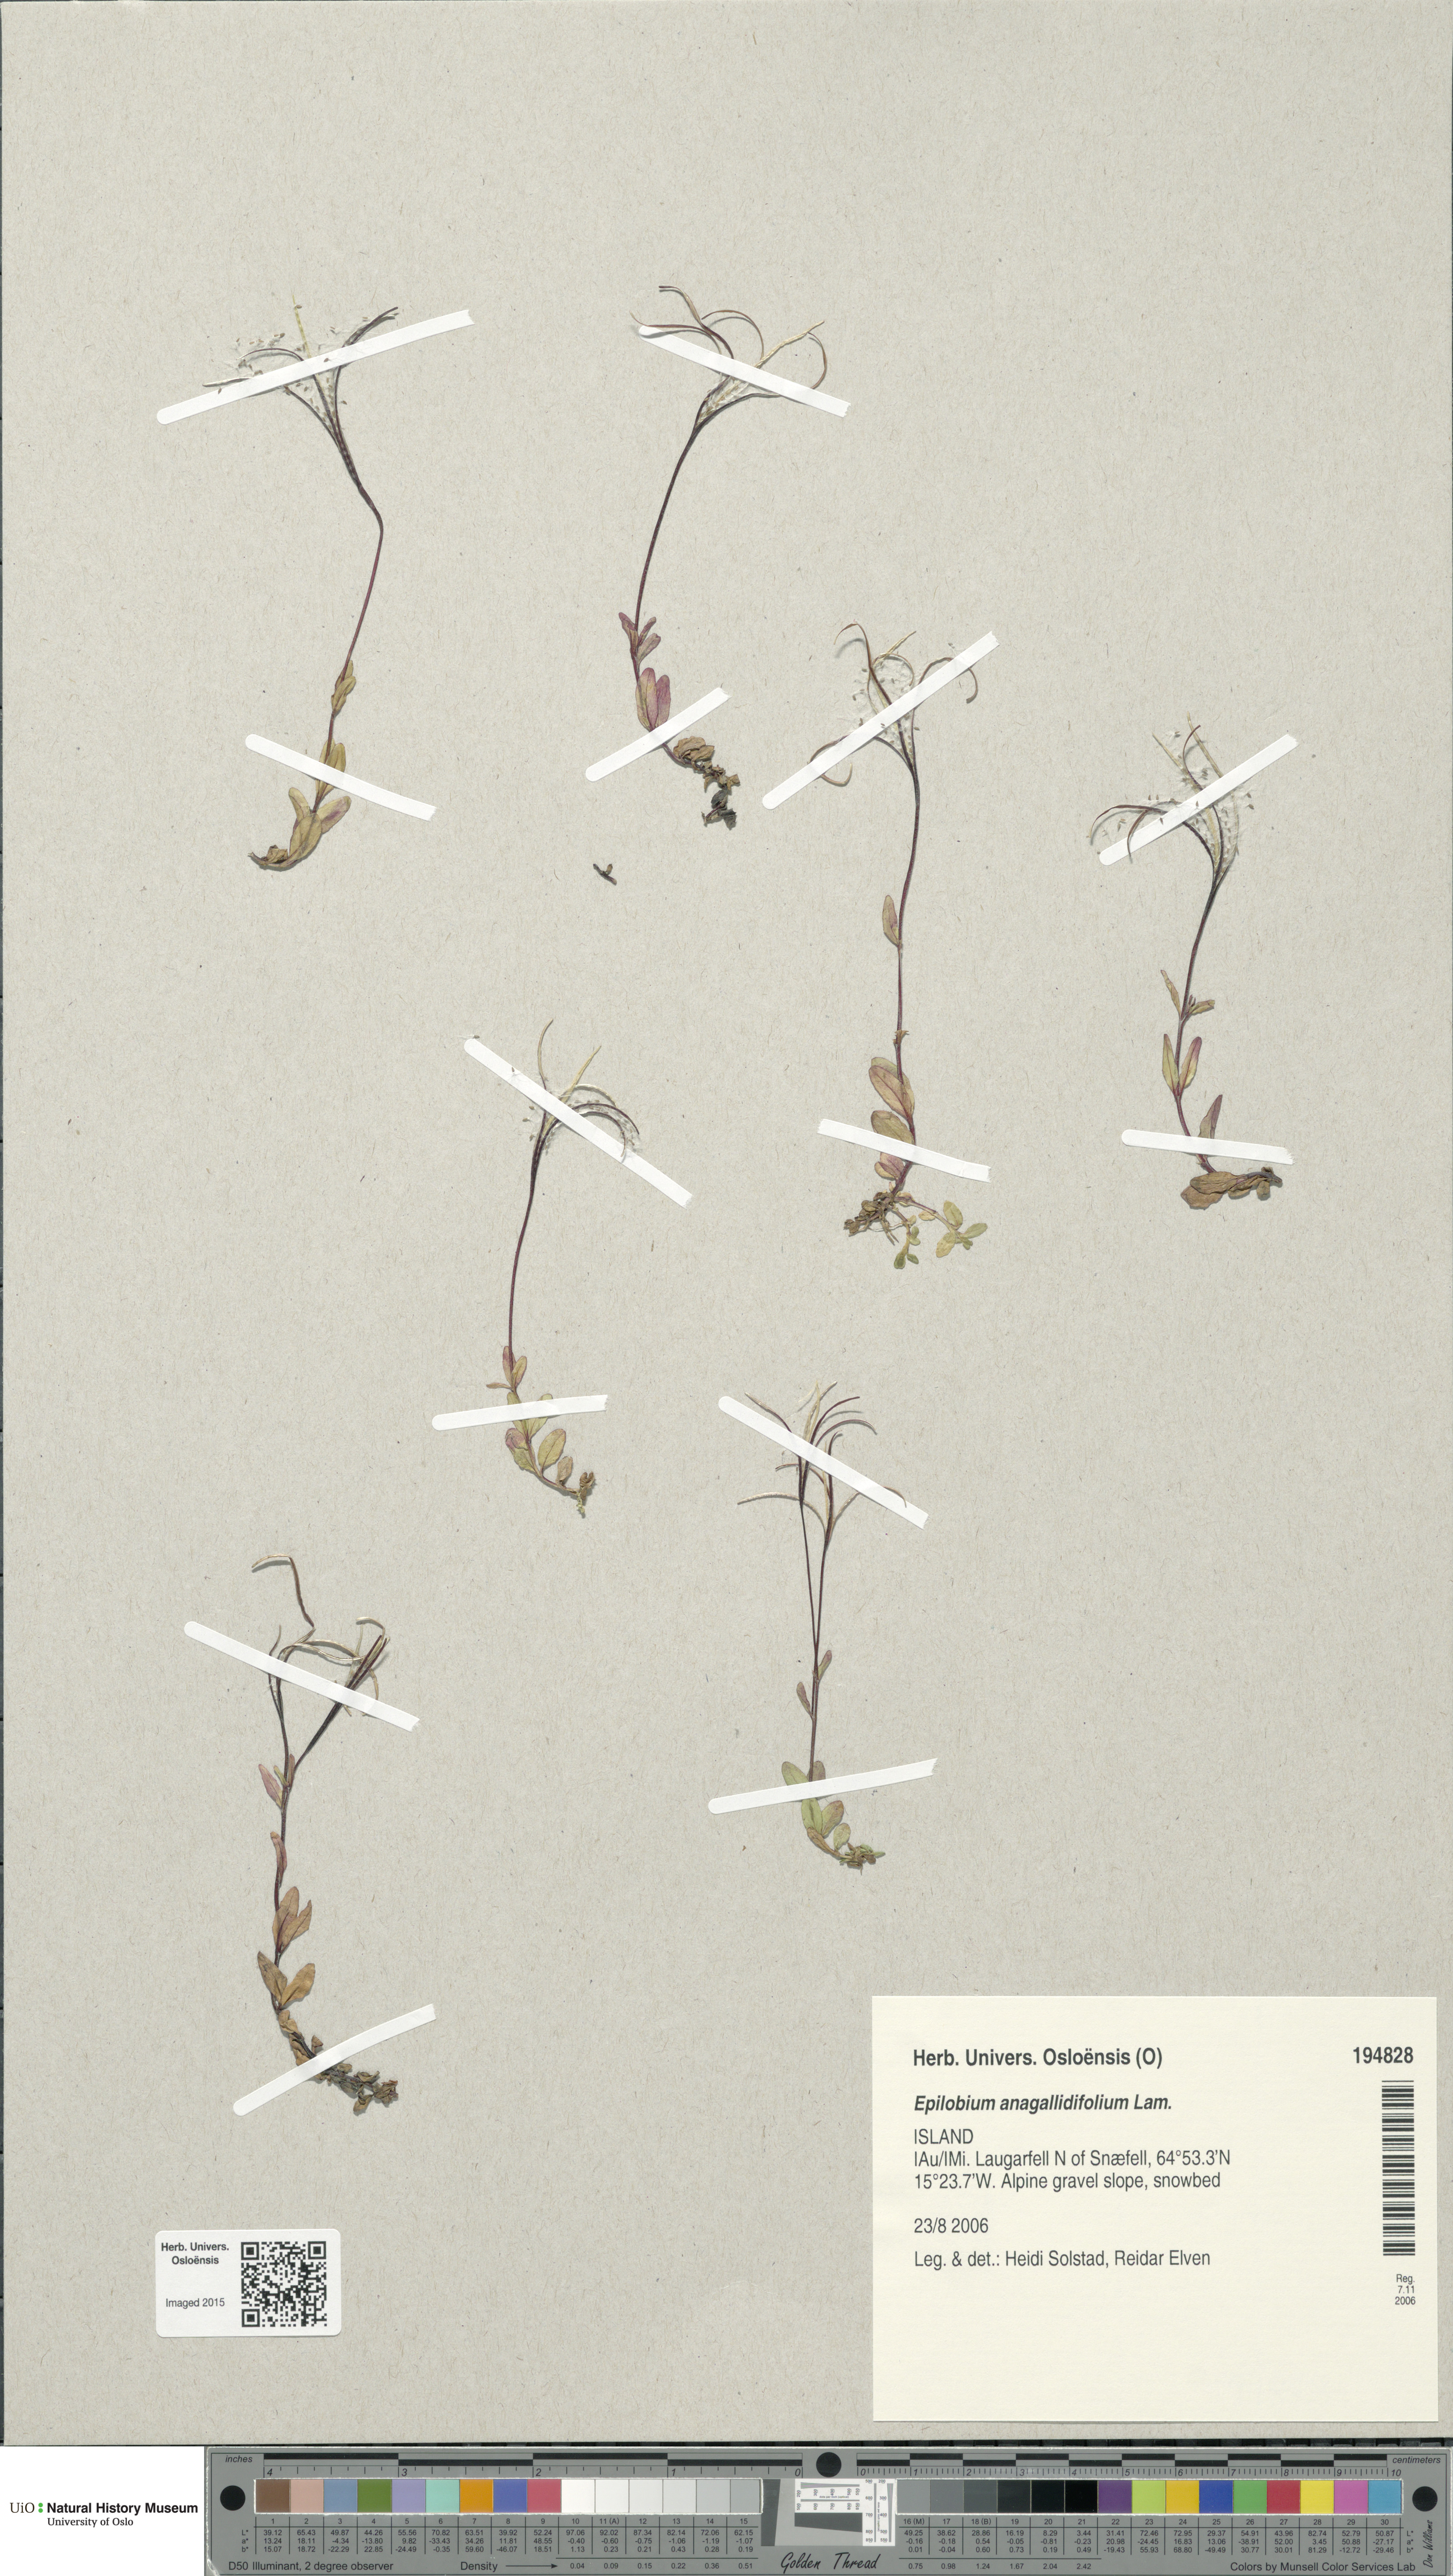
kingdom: Plantae
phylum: Tracheophyta
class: Magnoliopsida
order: Myrtales
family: Onagraceae
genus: Epilobium
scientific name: Epilobium anagallidifolium
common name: Alpine willowherb
